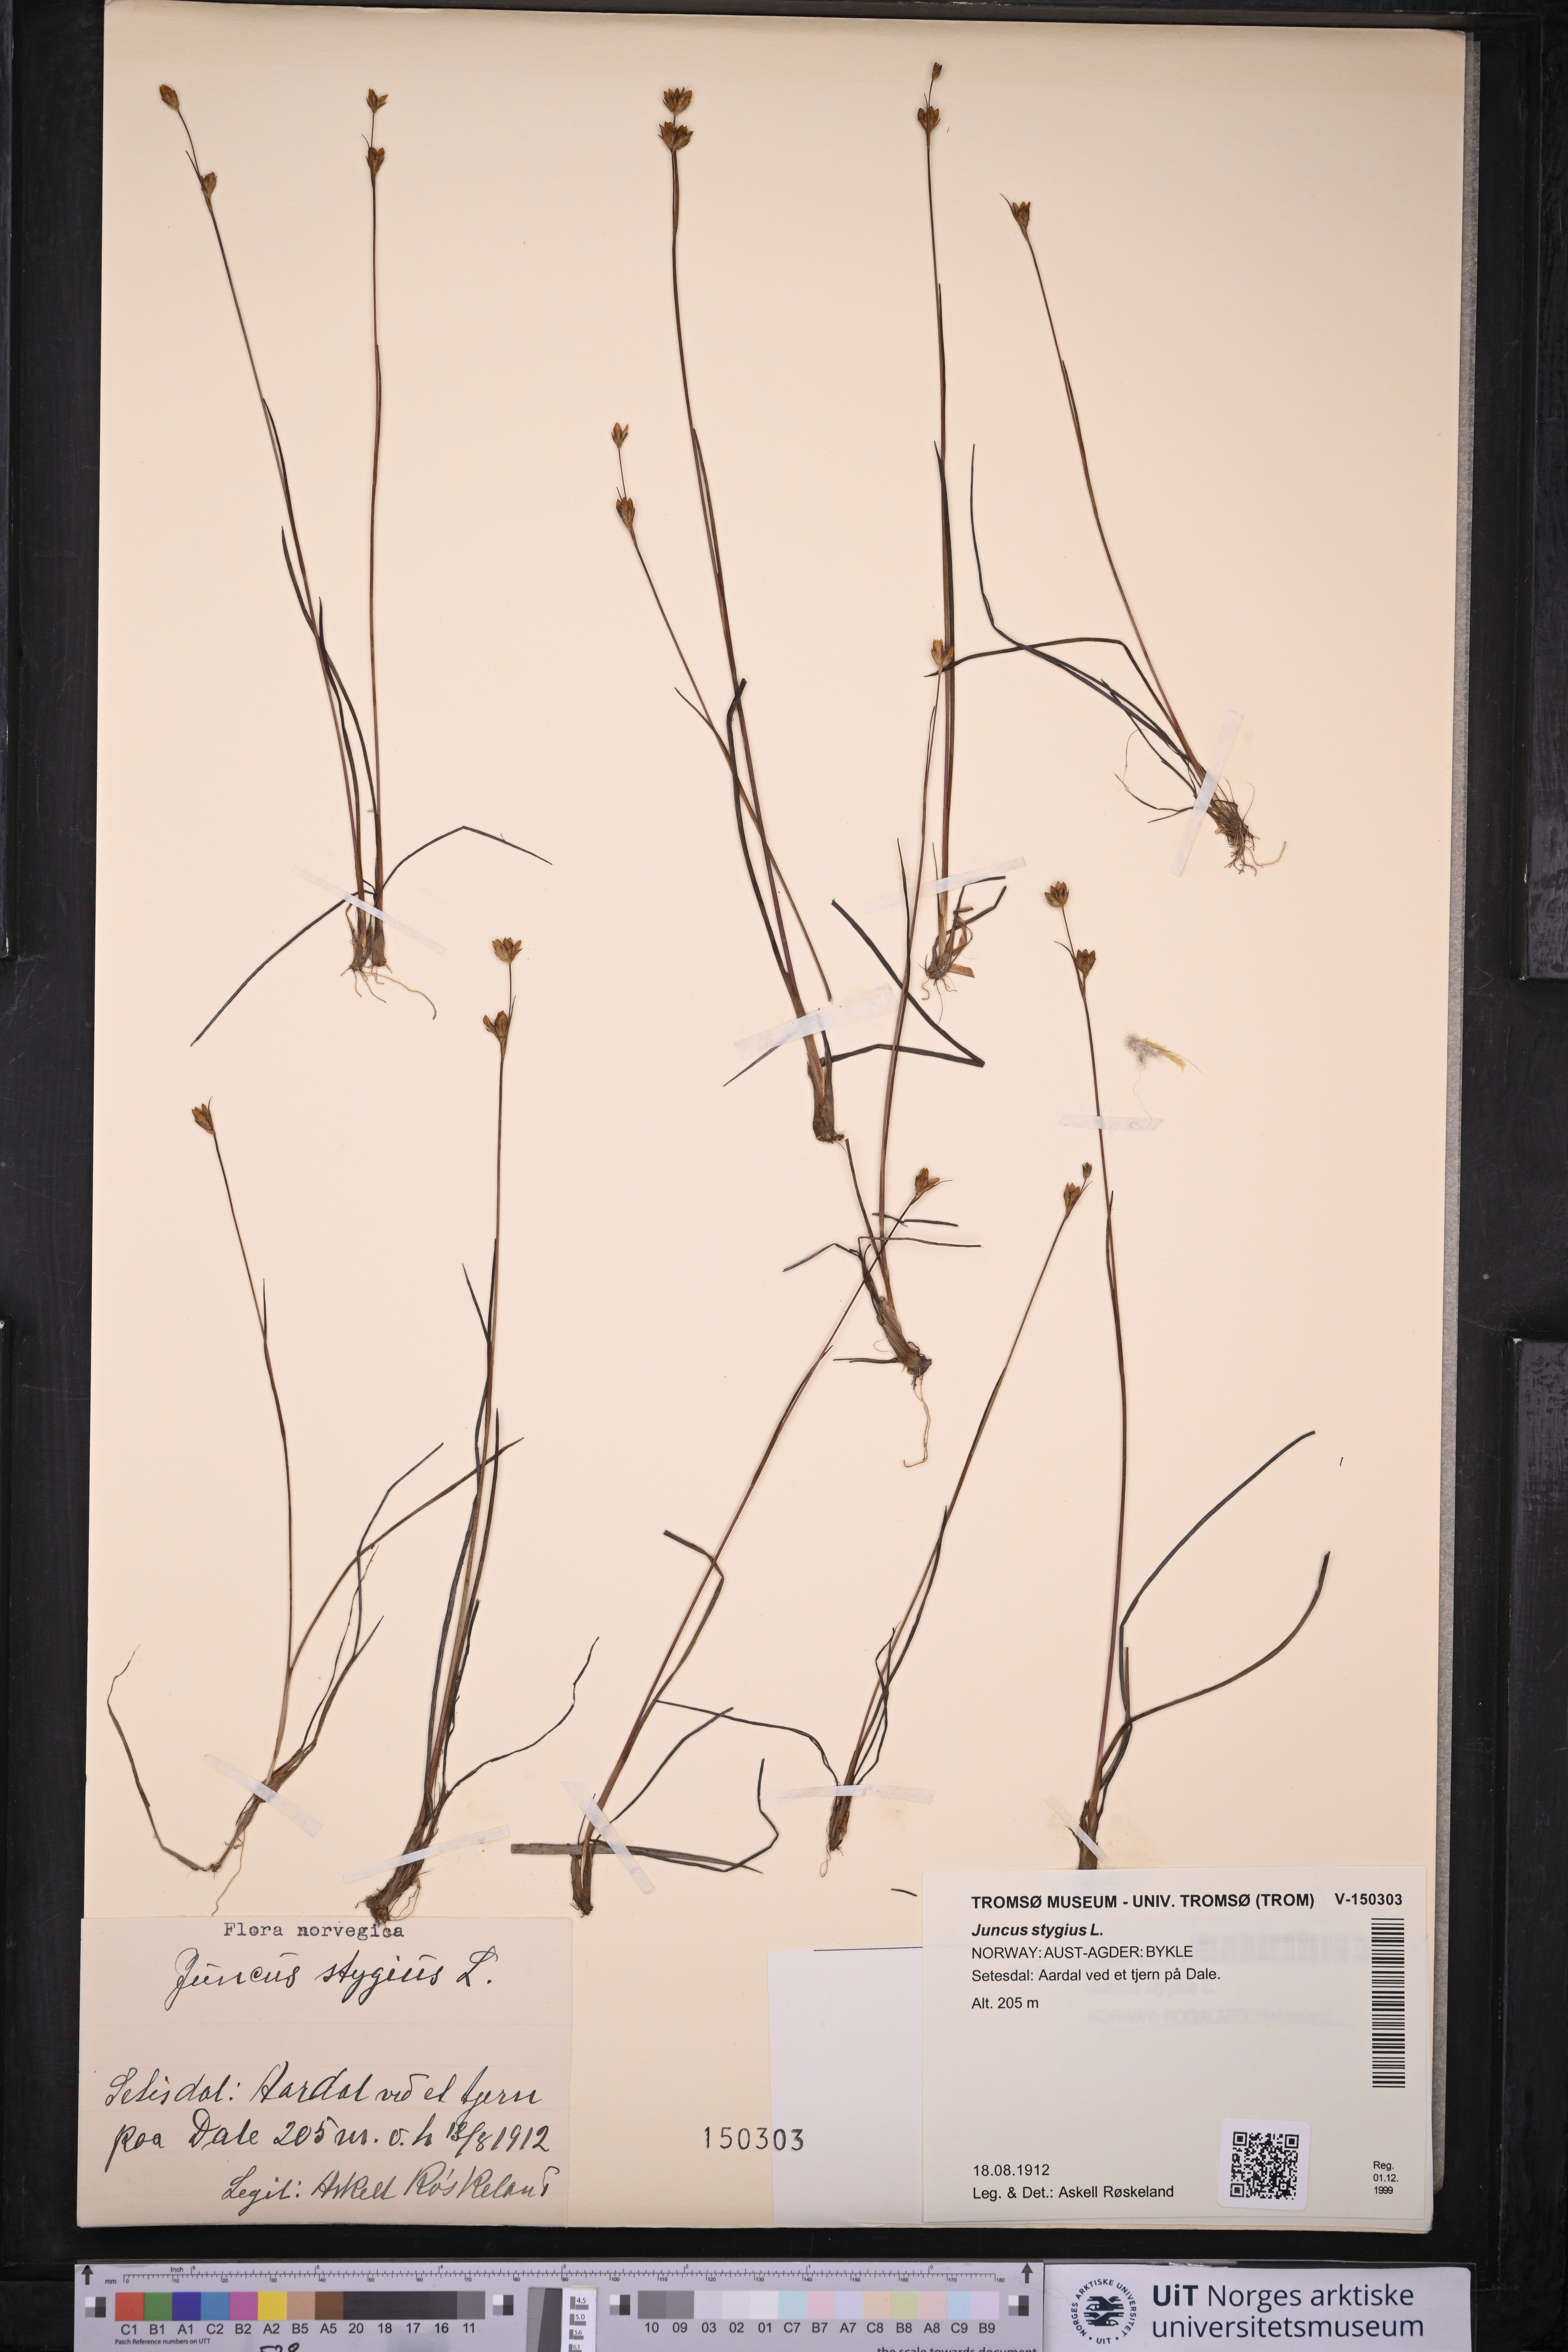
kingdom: Plantae
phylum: Tracheophyta
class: Liliopsida
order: Poales
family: Juncaceae
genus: Juncus
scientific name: Juncus stygius
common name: Bog rush
